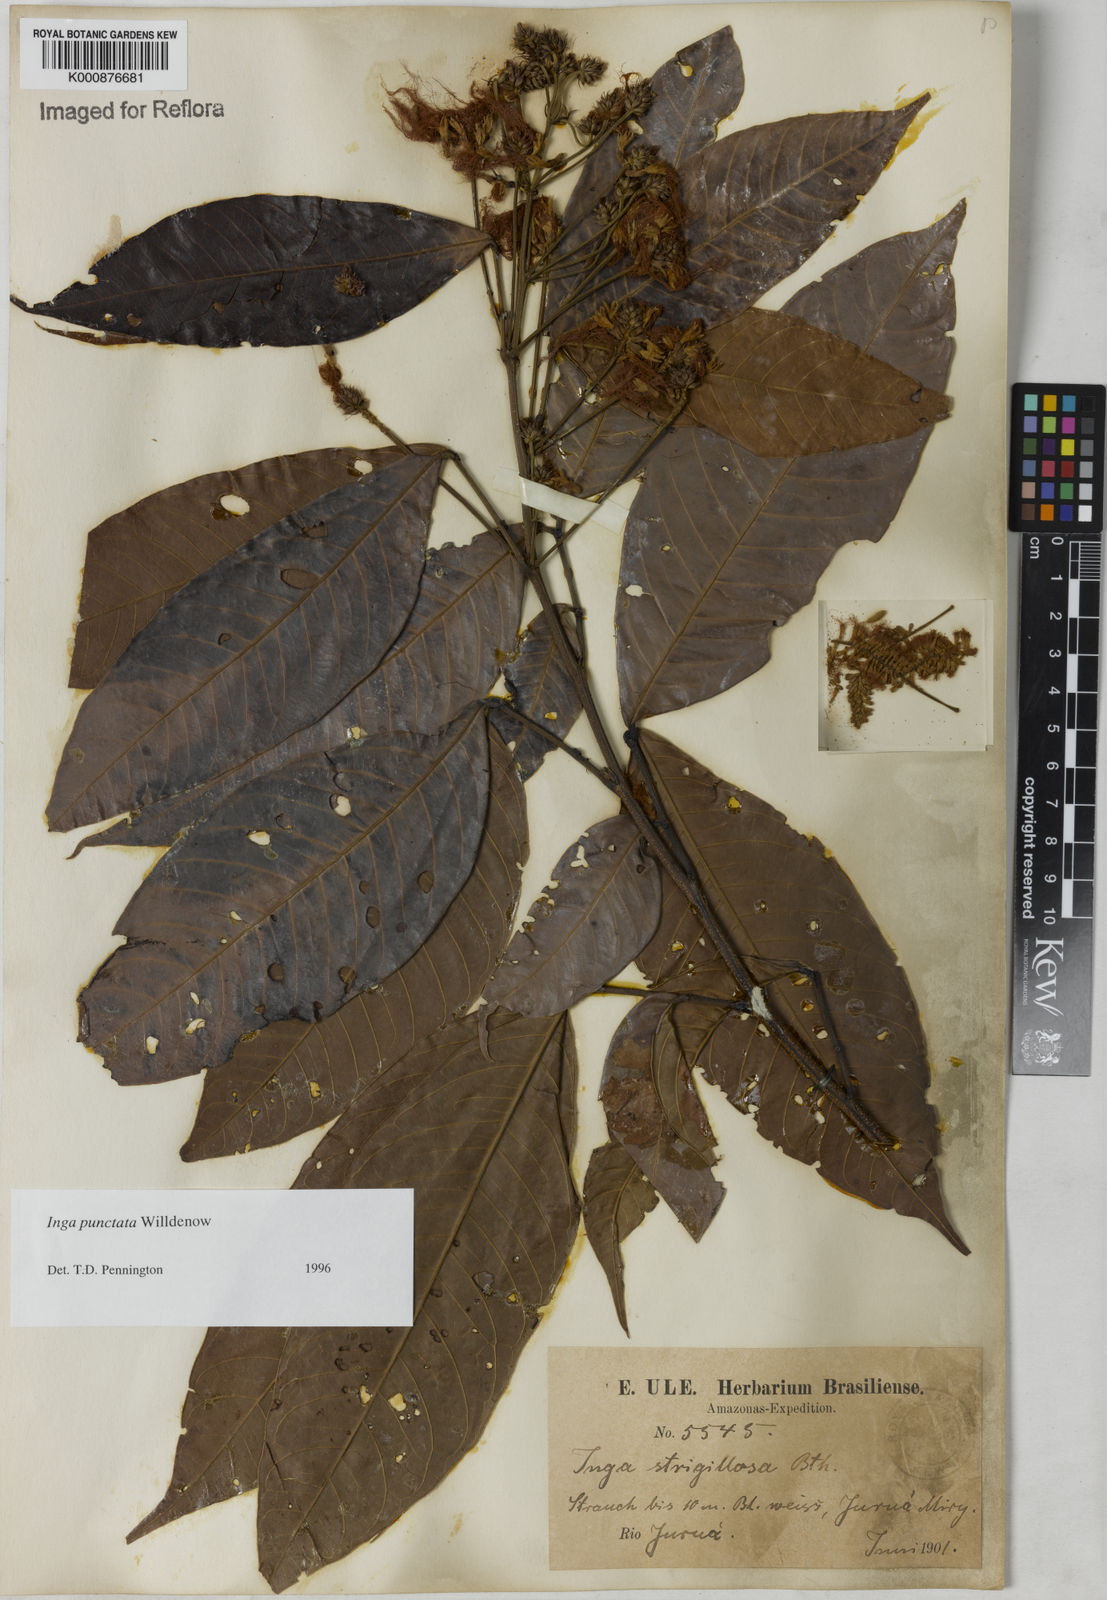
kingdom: Plantae
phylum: Tracheophyta
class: Magnoliopsida
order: Fabales
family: Fabaceae
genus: Inga
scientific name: Inga punctata
